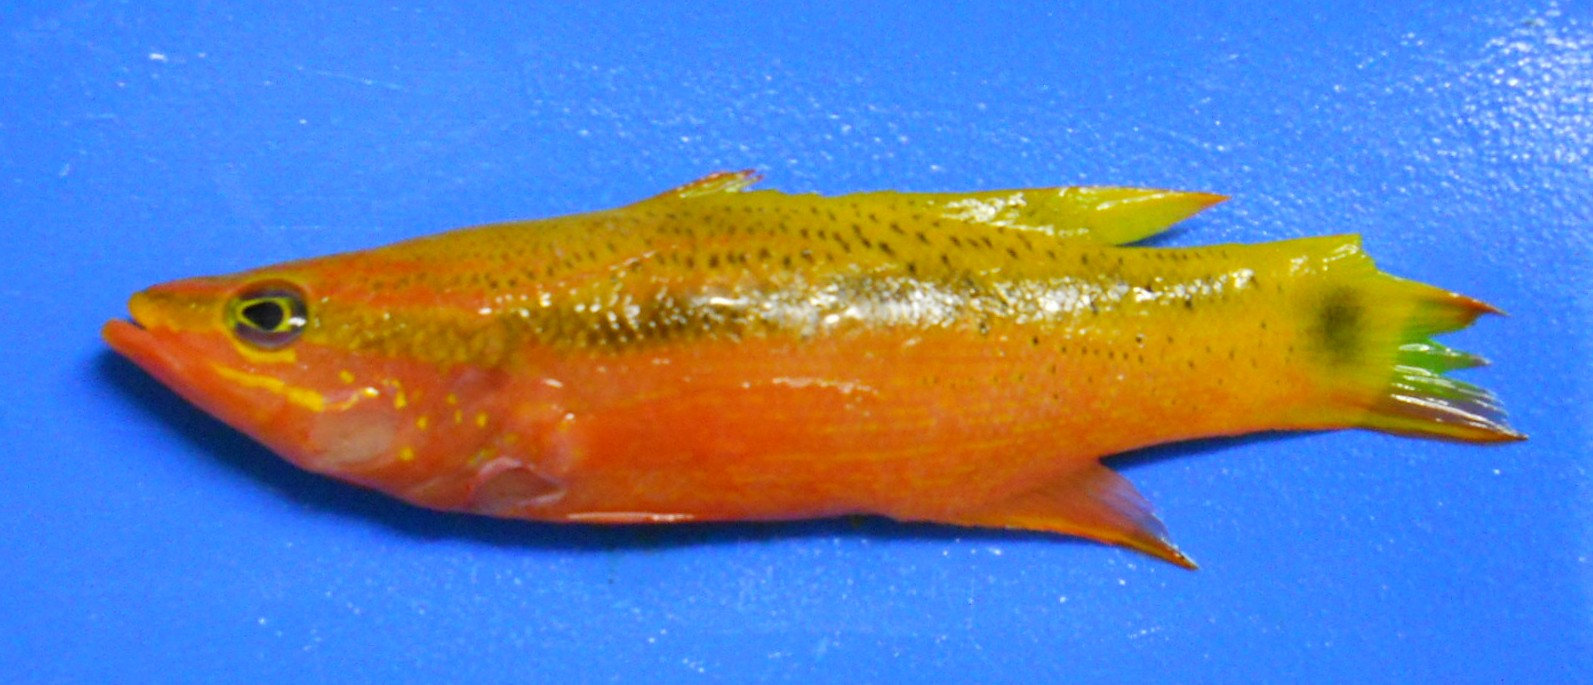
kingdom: Animalia
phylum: Chordata
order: Perciformes
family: Serranidae
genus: Liopropoma
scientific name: Liopropoma latifasciatum
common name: Blackstripe basslet
